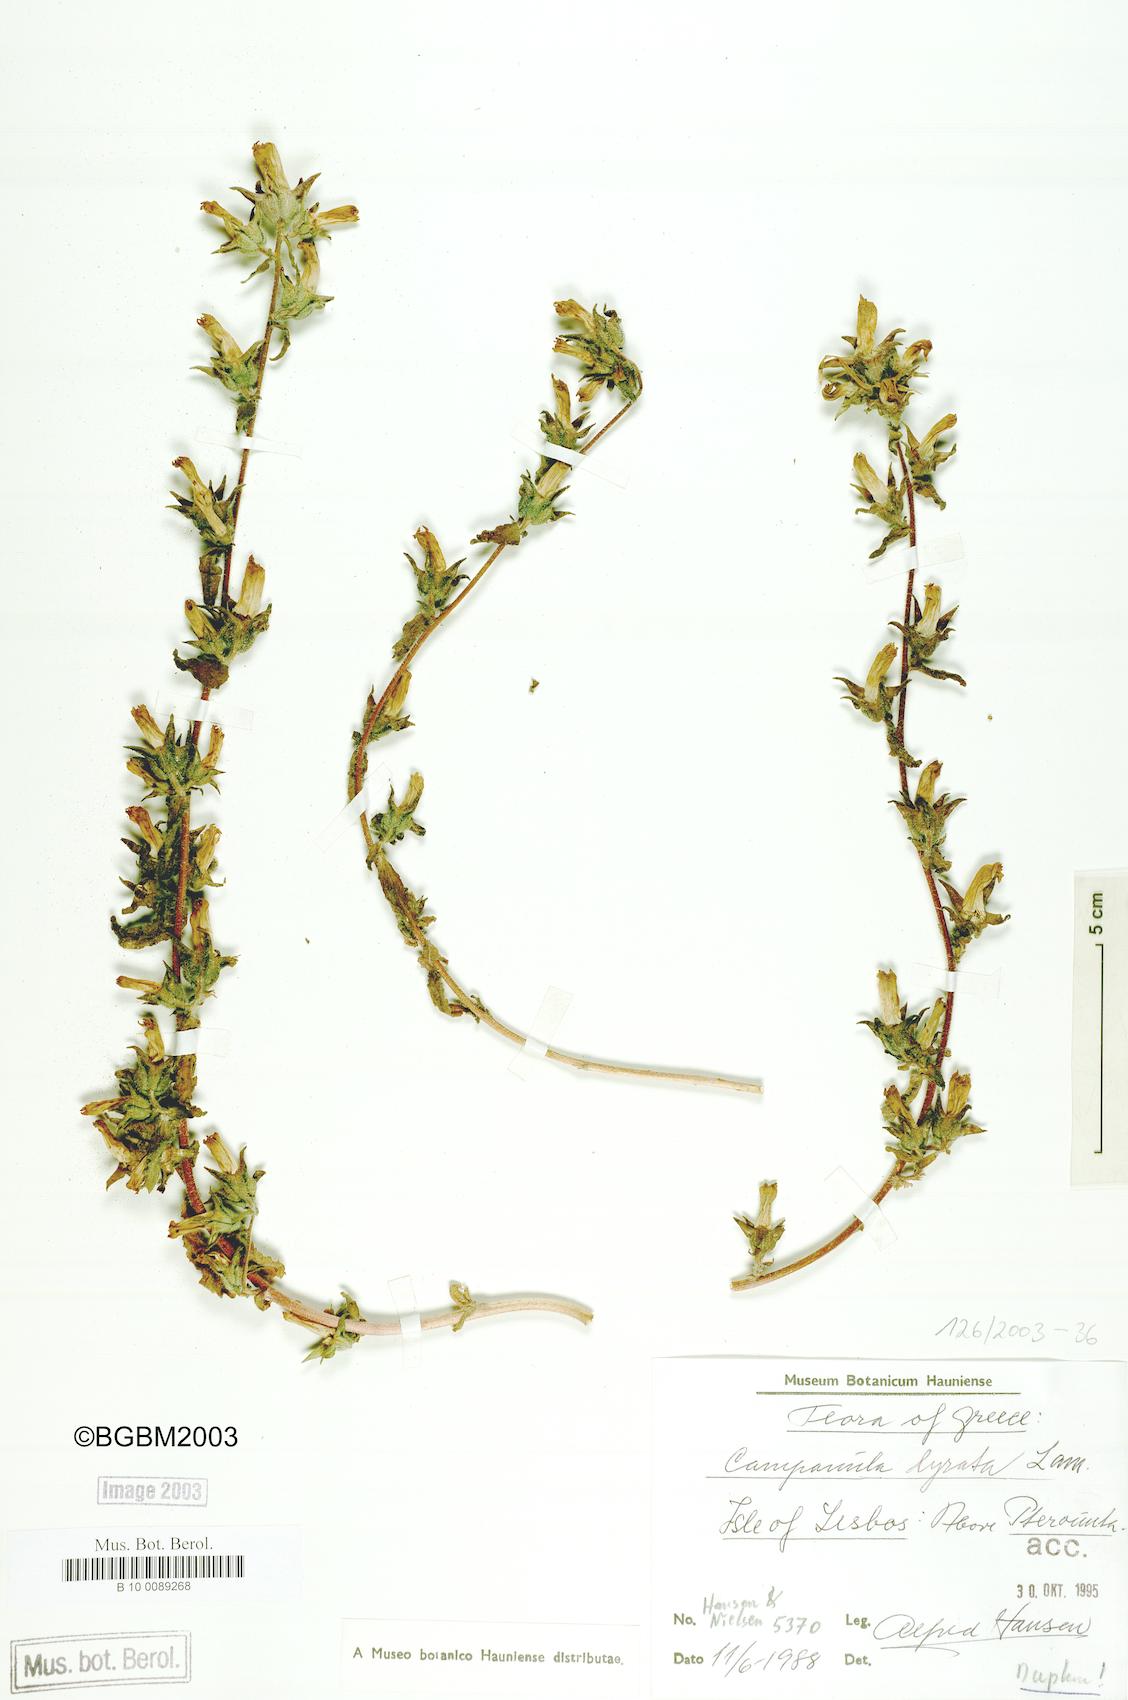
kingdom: Plantae
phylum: Tracheophyta
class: Magnoliopsida
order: Asterales
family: Campanulaceae
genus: Campanula
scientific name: Campanula lyrata
